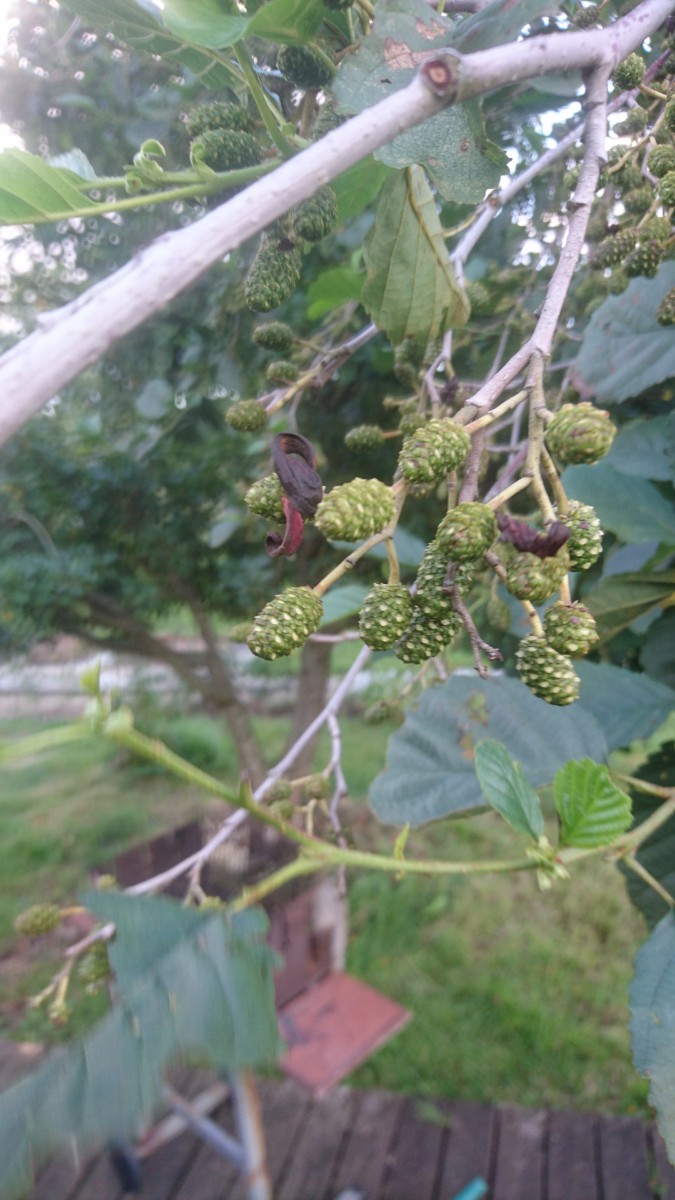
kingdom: Fungi
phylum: Ascomycota
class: Taphrinomycetes
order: Taphrinales
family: Taphrinaceae
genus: Taphrina
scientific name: Taphrina alni
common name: Alder tongue
